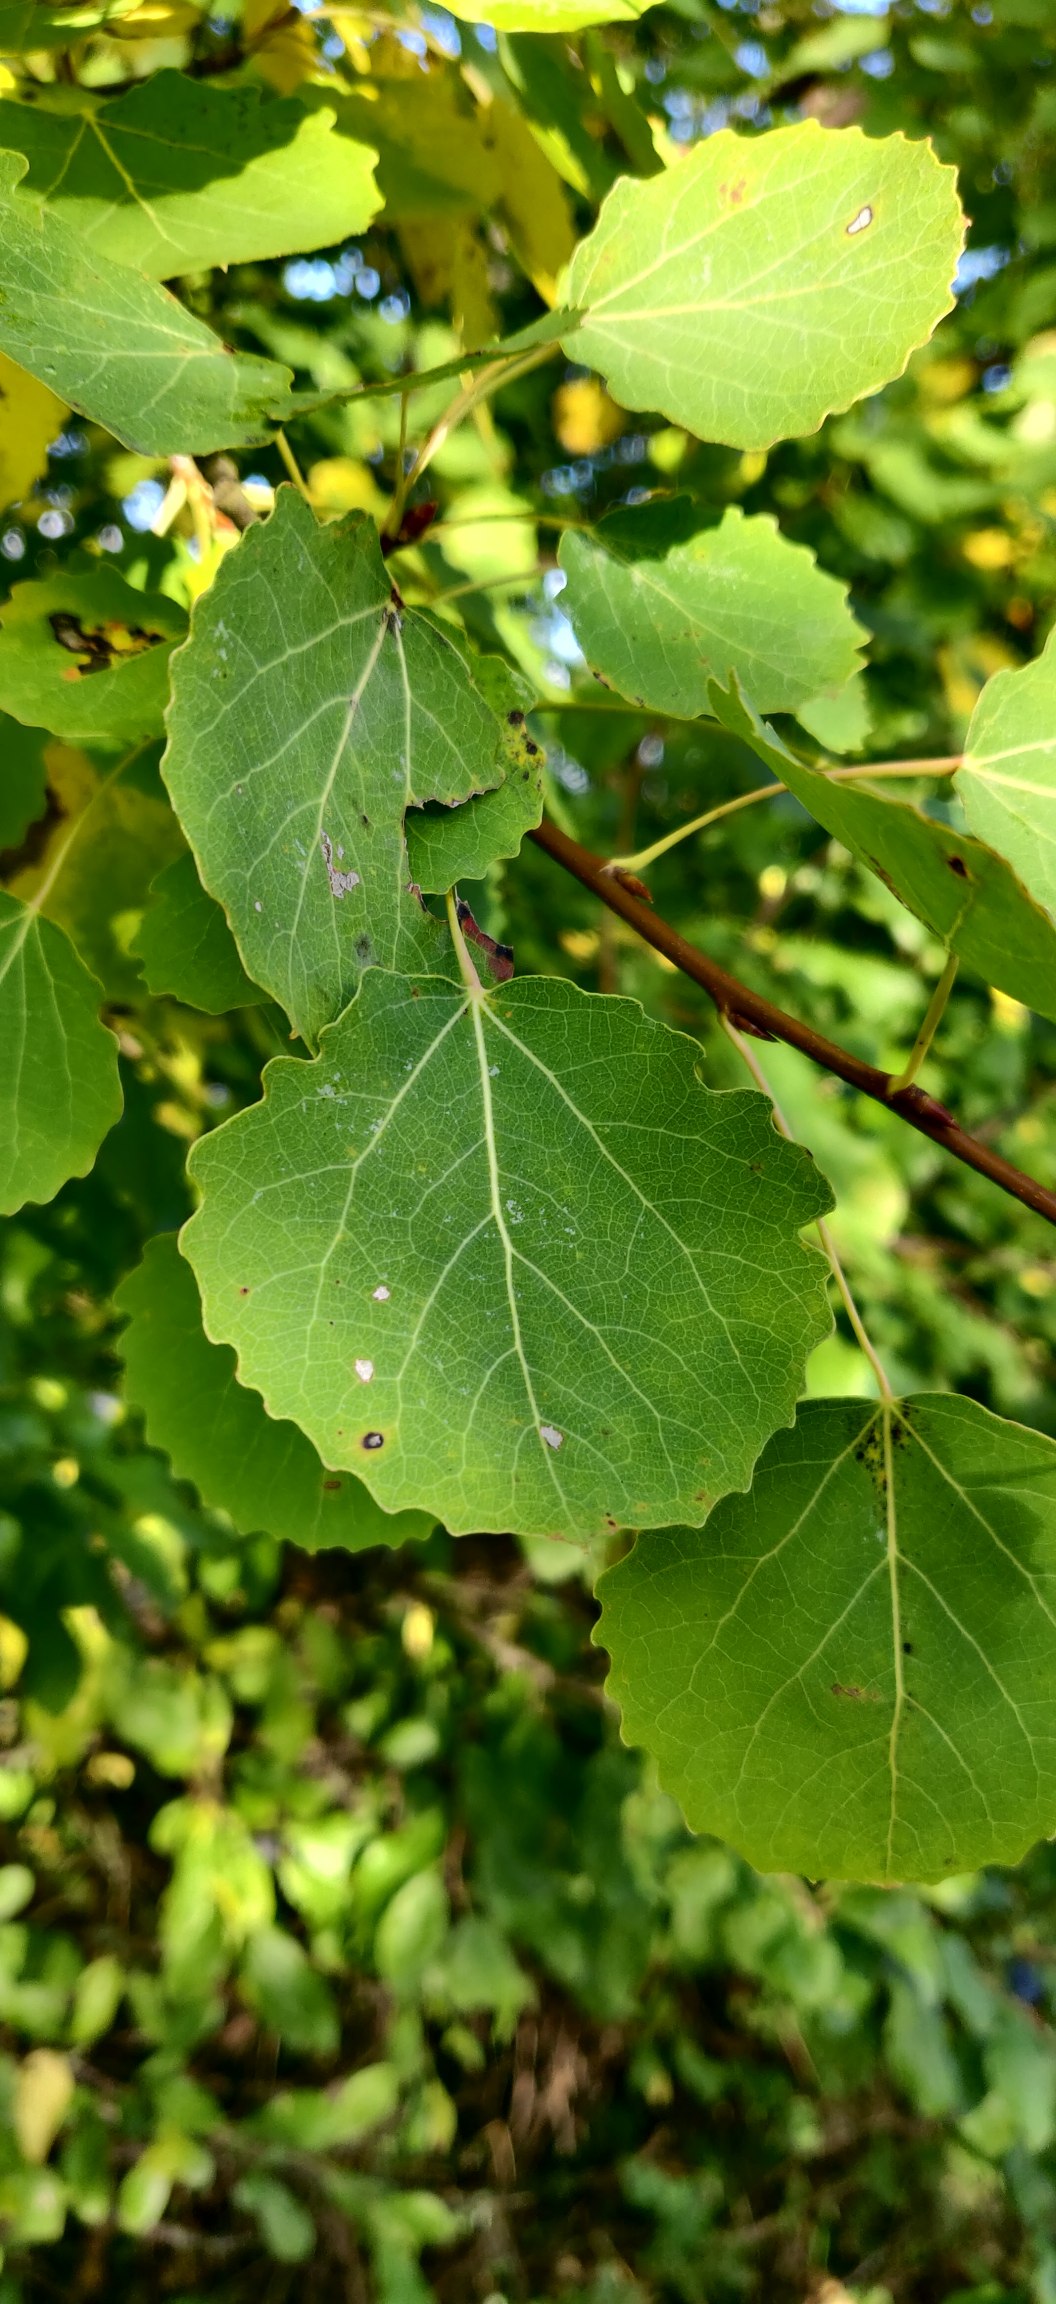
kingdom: Plantae
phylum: Tracheophyta
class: Magnoliopsida
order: Malpighiales
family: Salicaceae
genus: Populus
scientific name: Populus tremula
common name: Bævreasp
